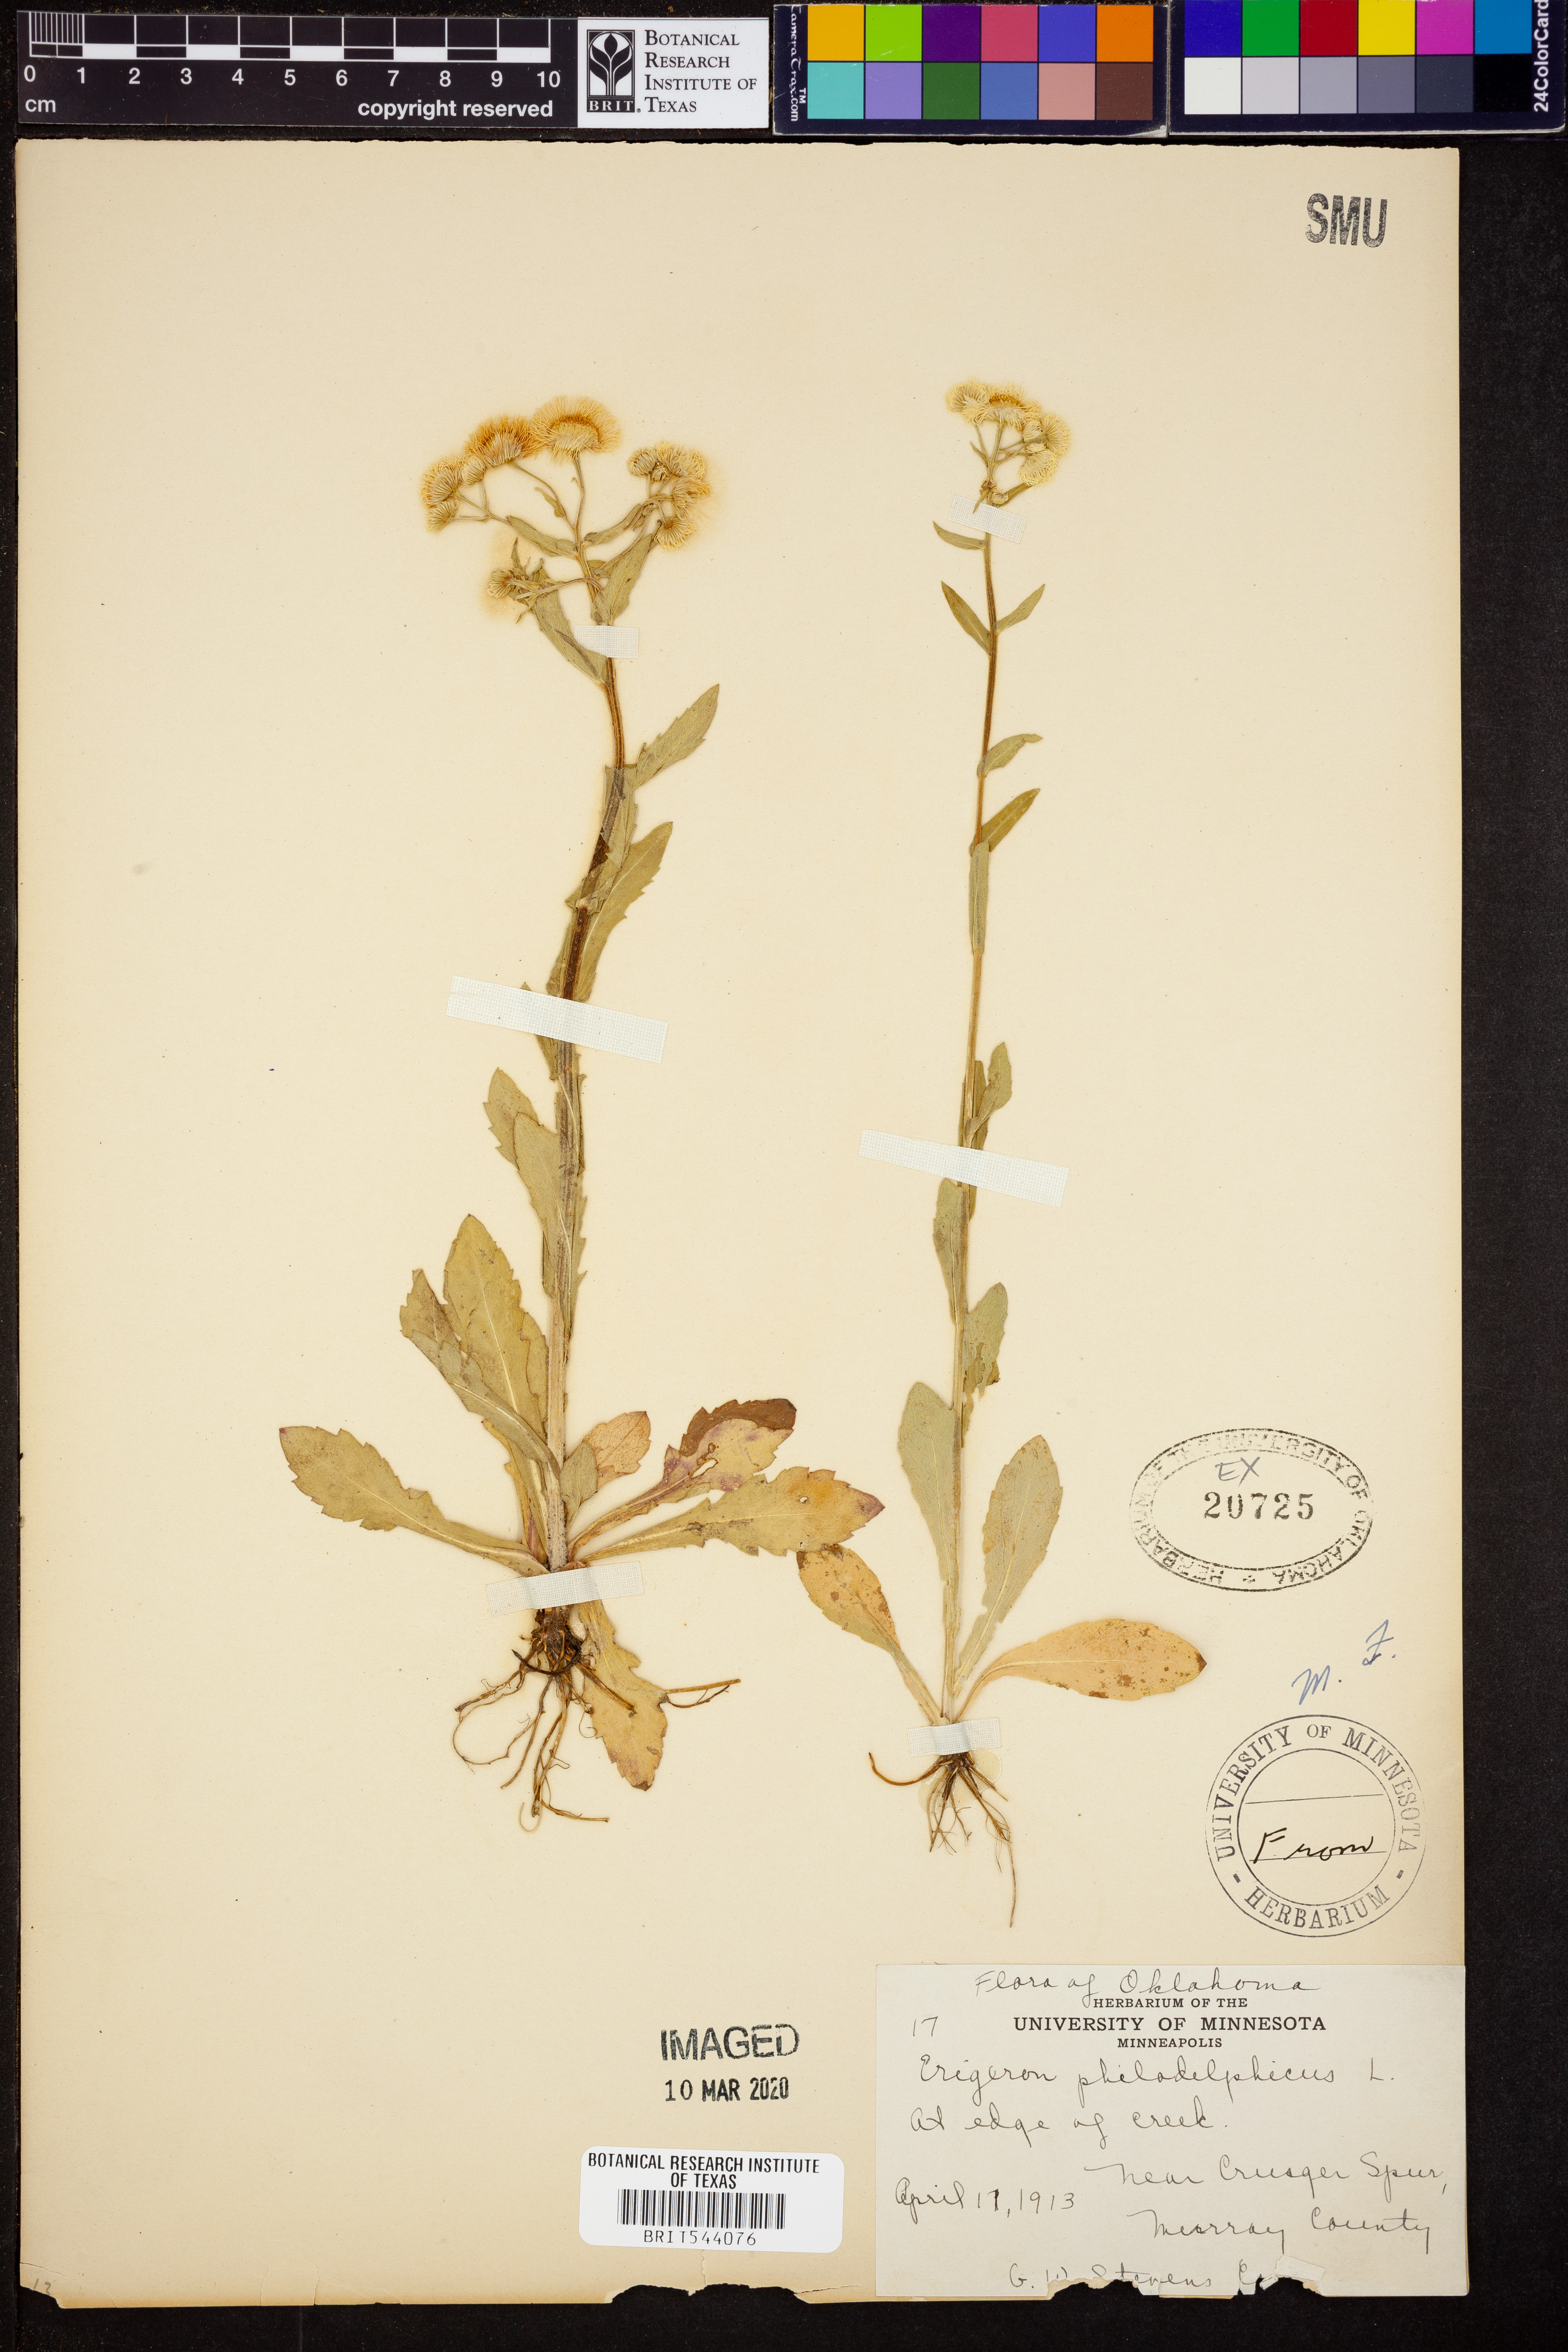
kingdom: Plantae
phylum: Tracheophyta
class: Magnoliopsida
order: Asterales
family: Asteraceae
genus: Erigeron
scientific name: Erigeron philadelphicus
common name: Robin's-plantain
